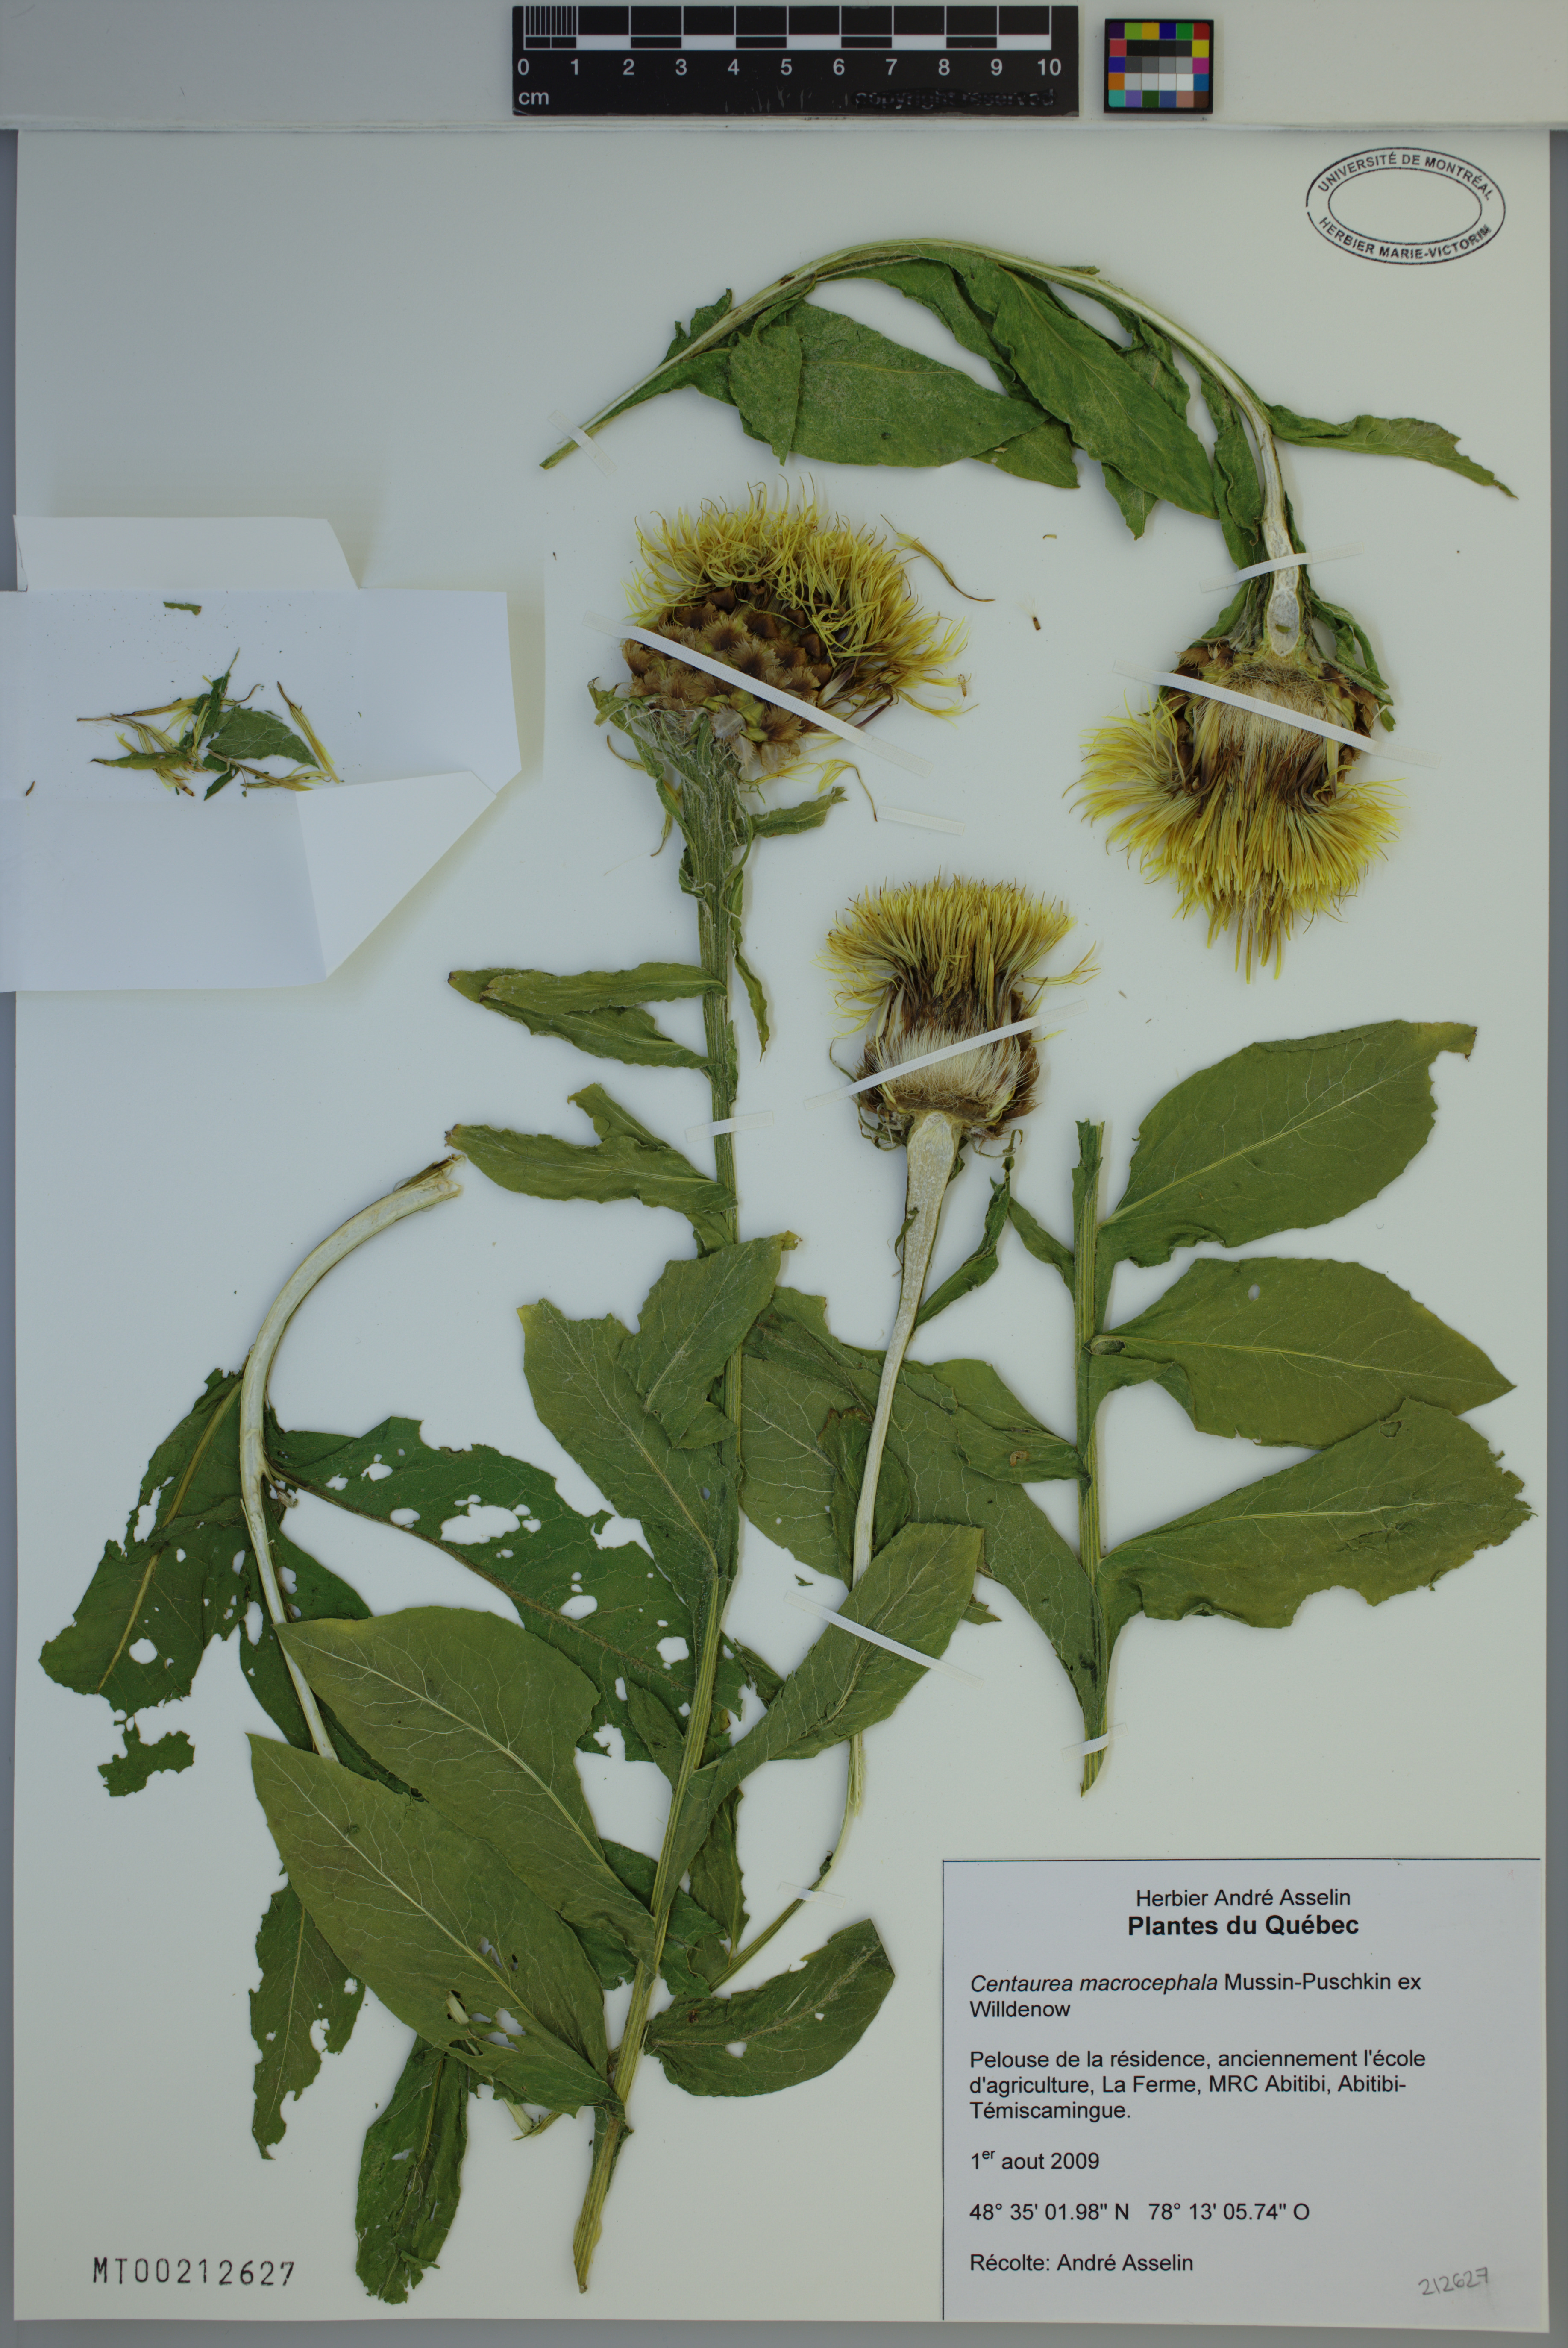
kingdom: Plantae
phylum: Tracheophyta
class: Magnoliopsida
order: Asterales
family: Asteraceae
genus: Centaurea
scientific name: Centaurea macrocephala
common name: Big-head knapweed
